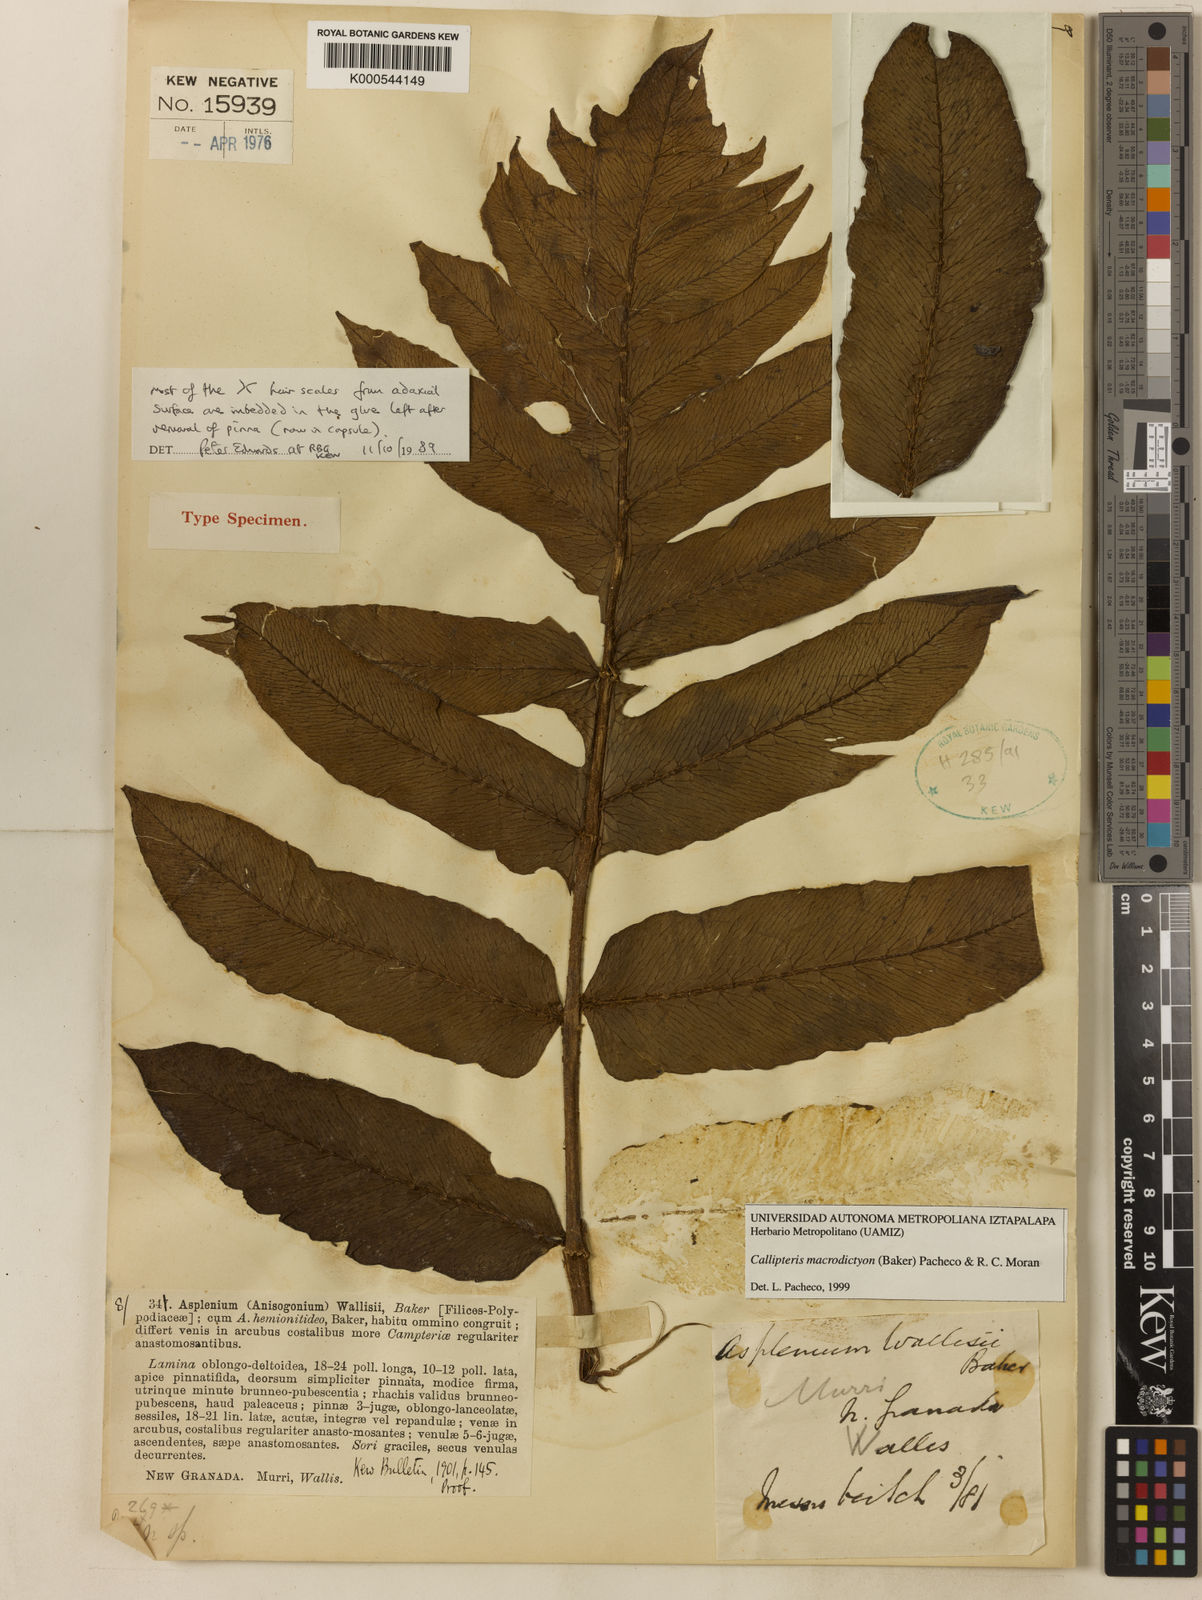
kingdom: Plantae
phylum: Tracheophyta
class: Polypodiopsida
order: Polypodiales
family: Athyriaceae
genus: Diplazium
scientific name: Diplazium macrodictyon
